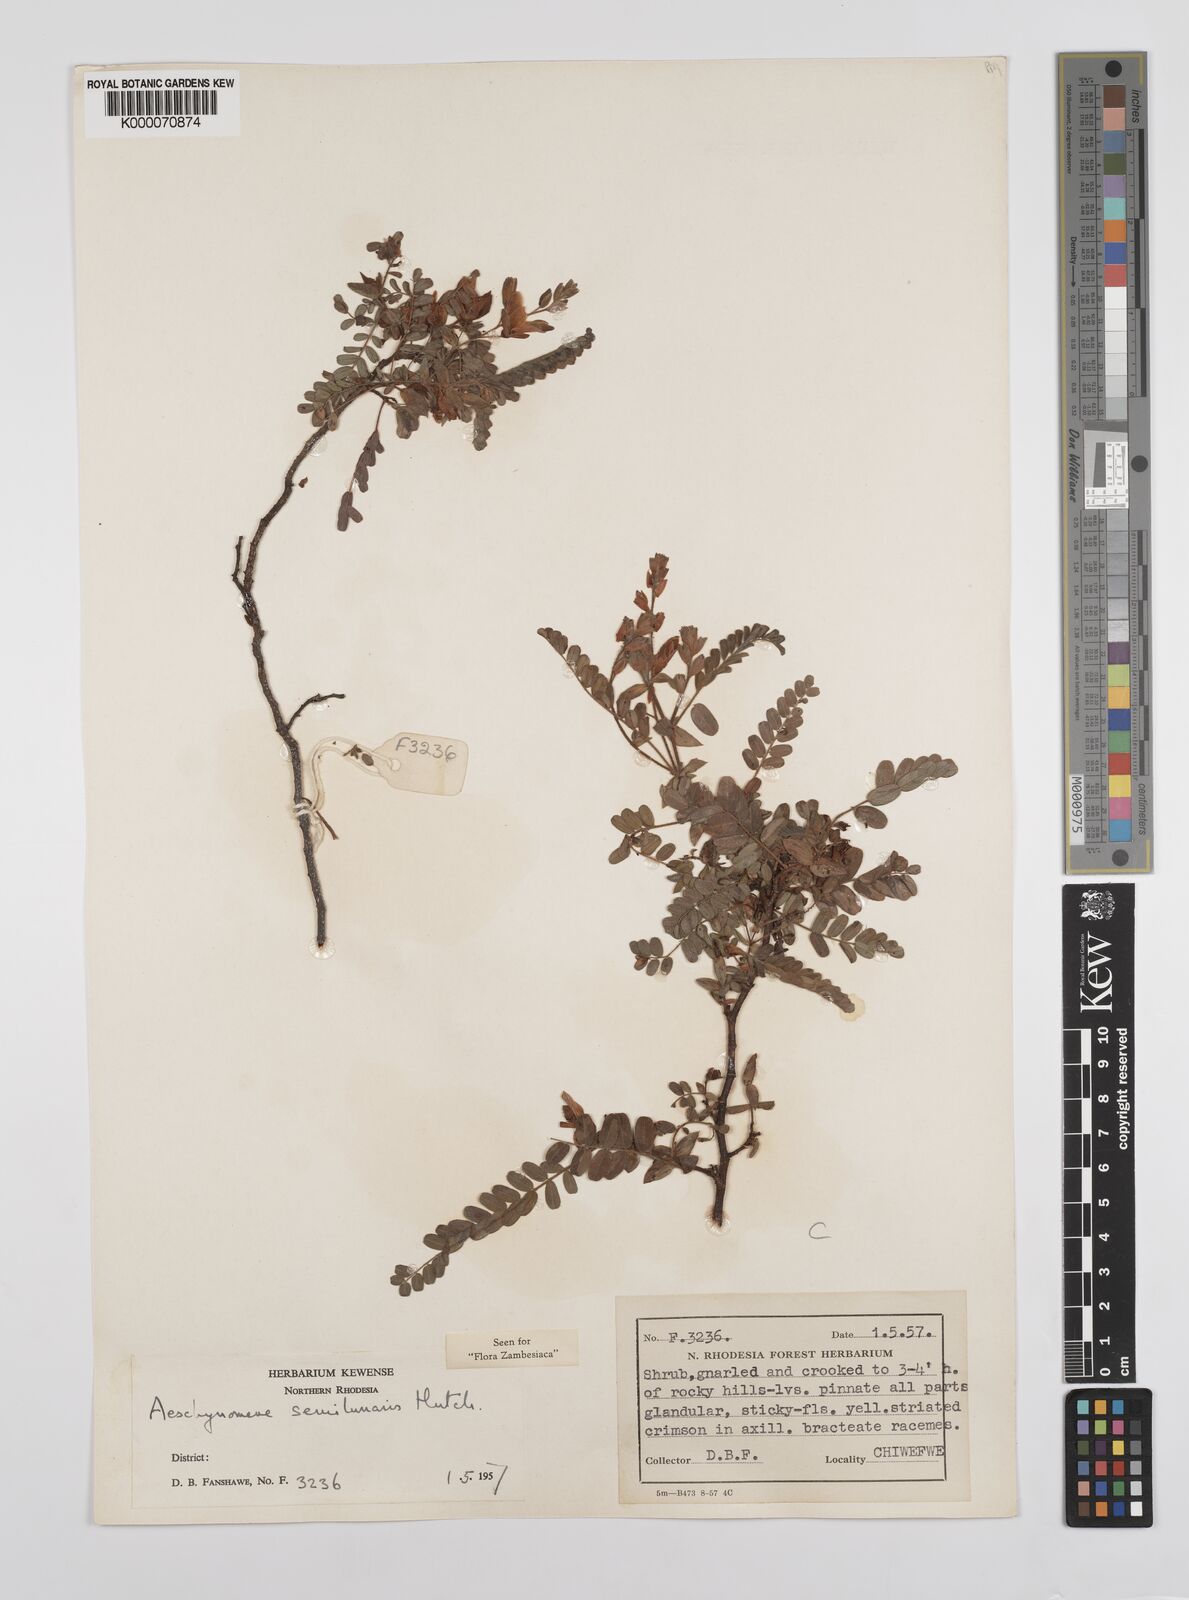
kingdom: Plantae
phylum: Tracheophyta
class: Magnoliopsida
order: Fabales
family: Fabaceae
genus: Aeschynomene
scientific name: Aeschynomene semilunaris
